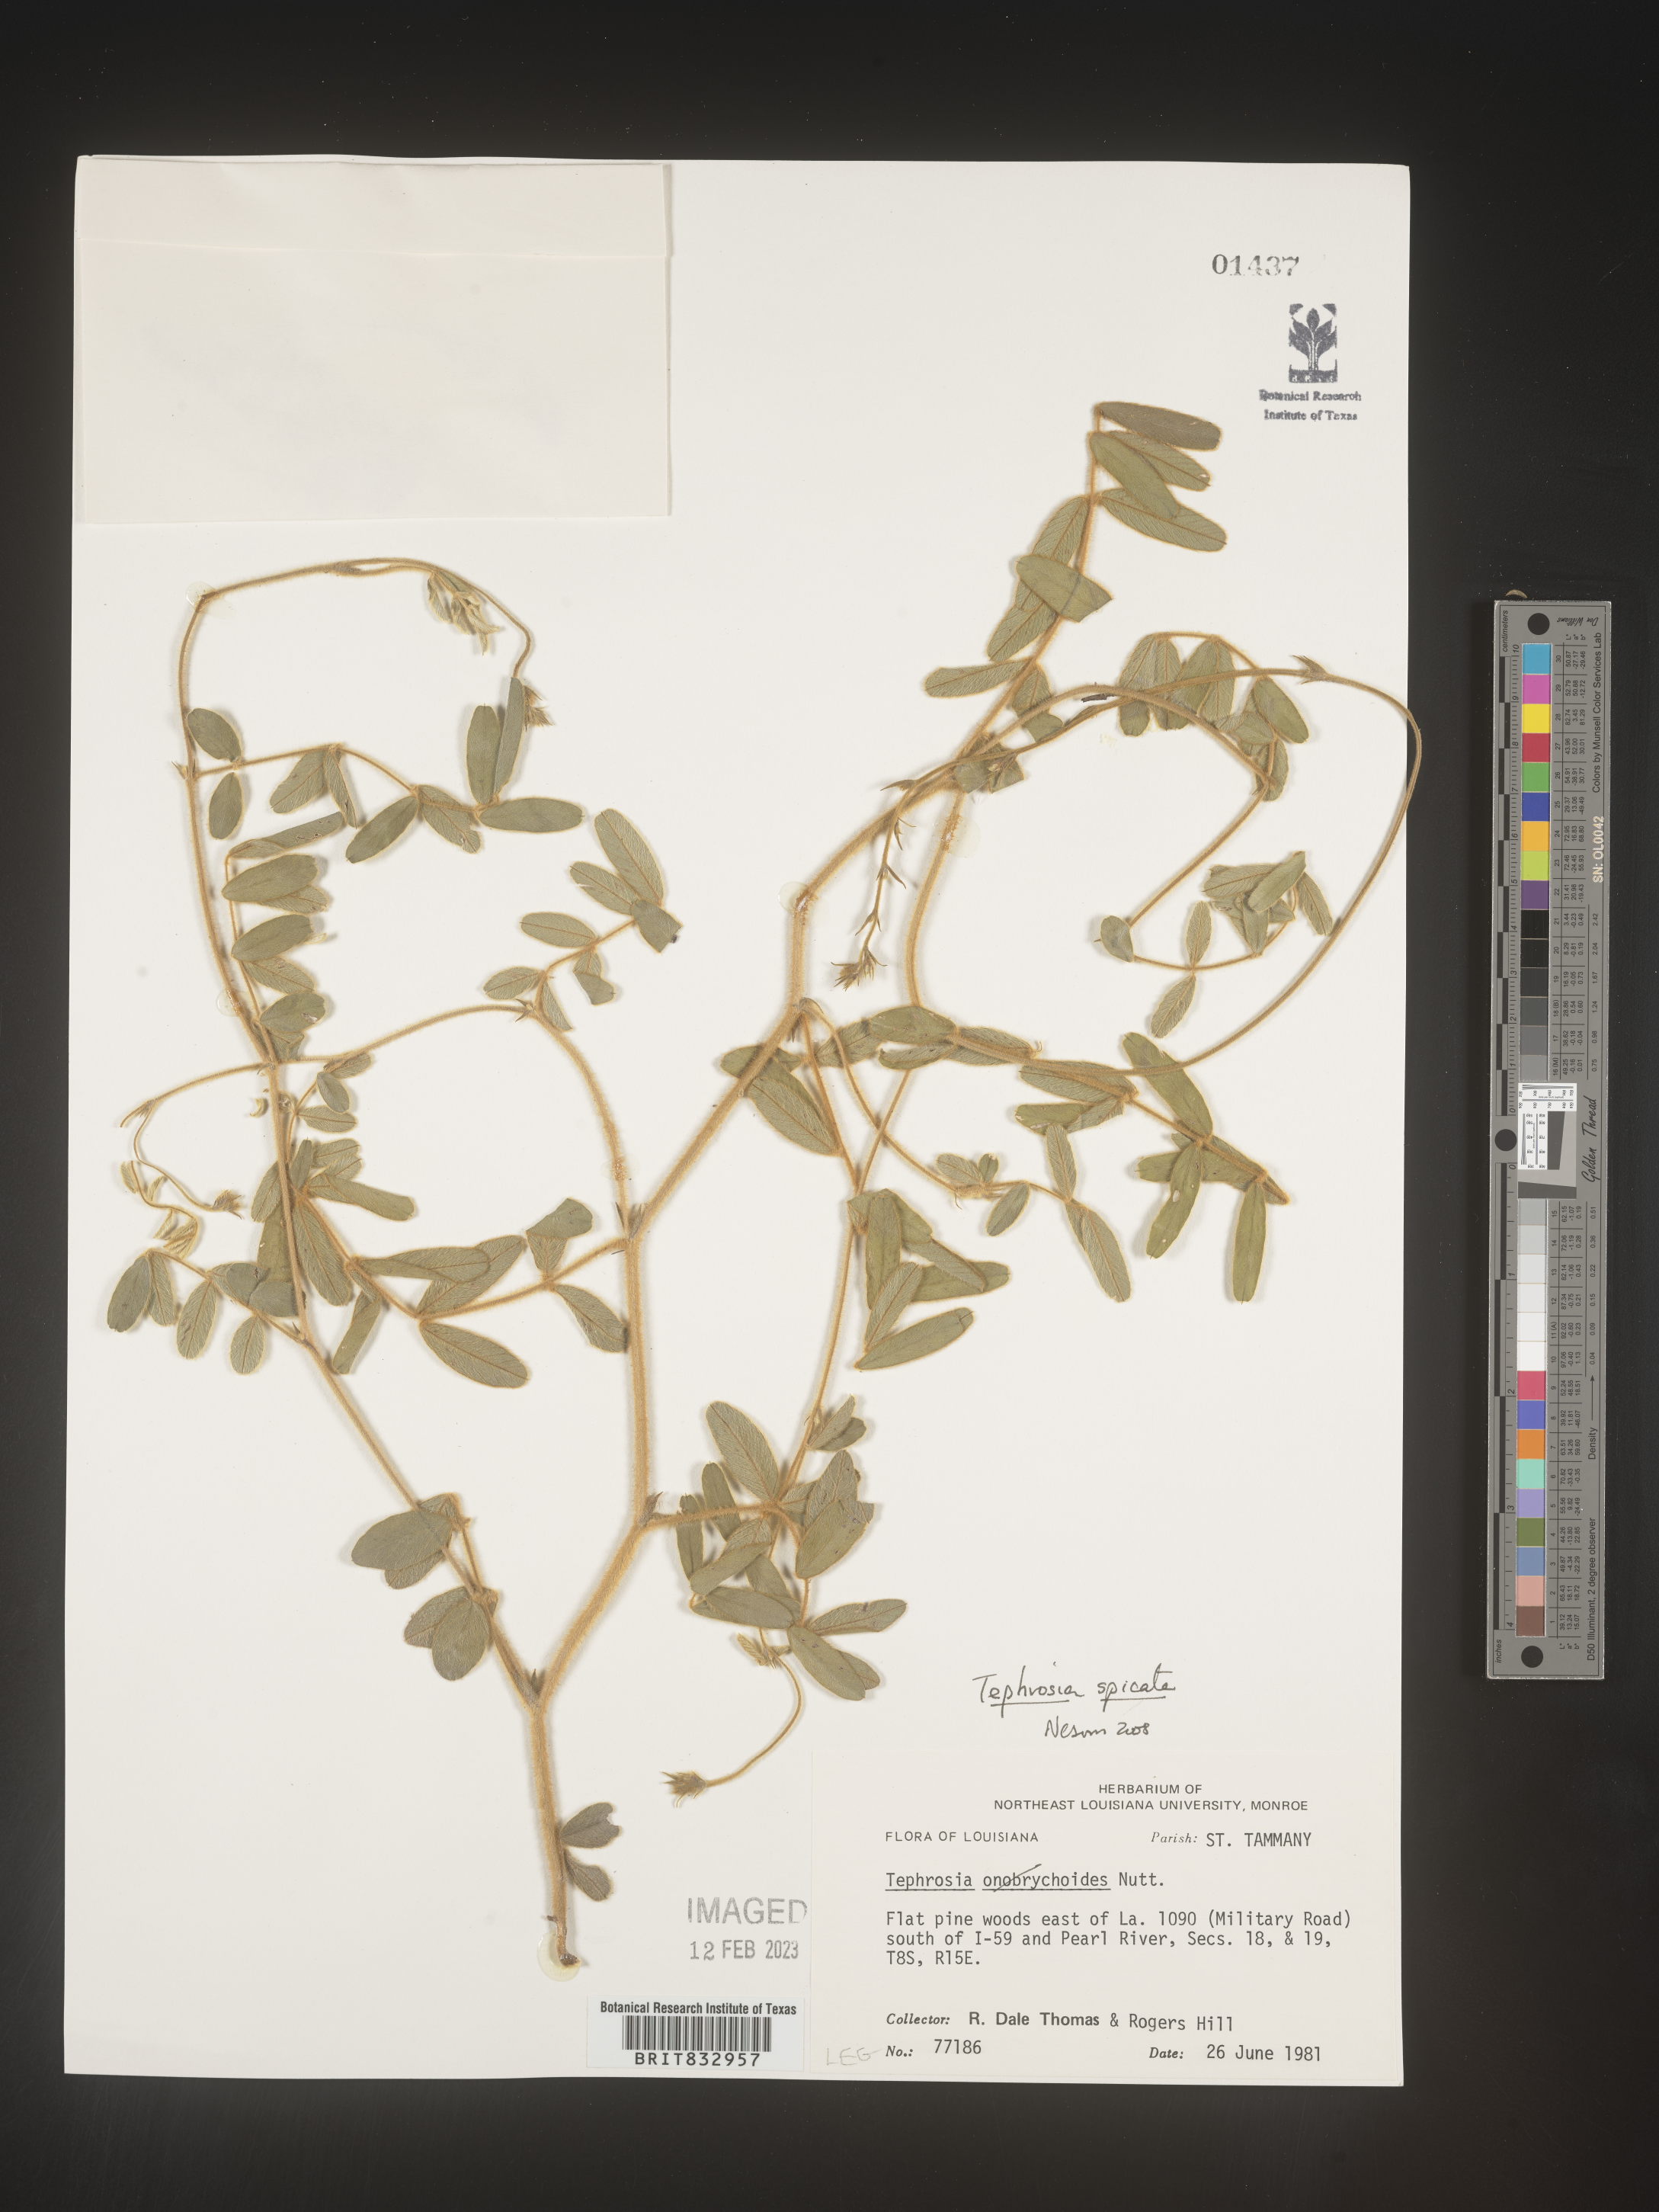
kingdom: Plantae
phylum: Tracheophyta
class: Magnoliopsida
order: Fabales
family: Fabaceae
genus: Tephrosia
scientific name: Tephrosia spicata
